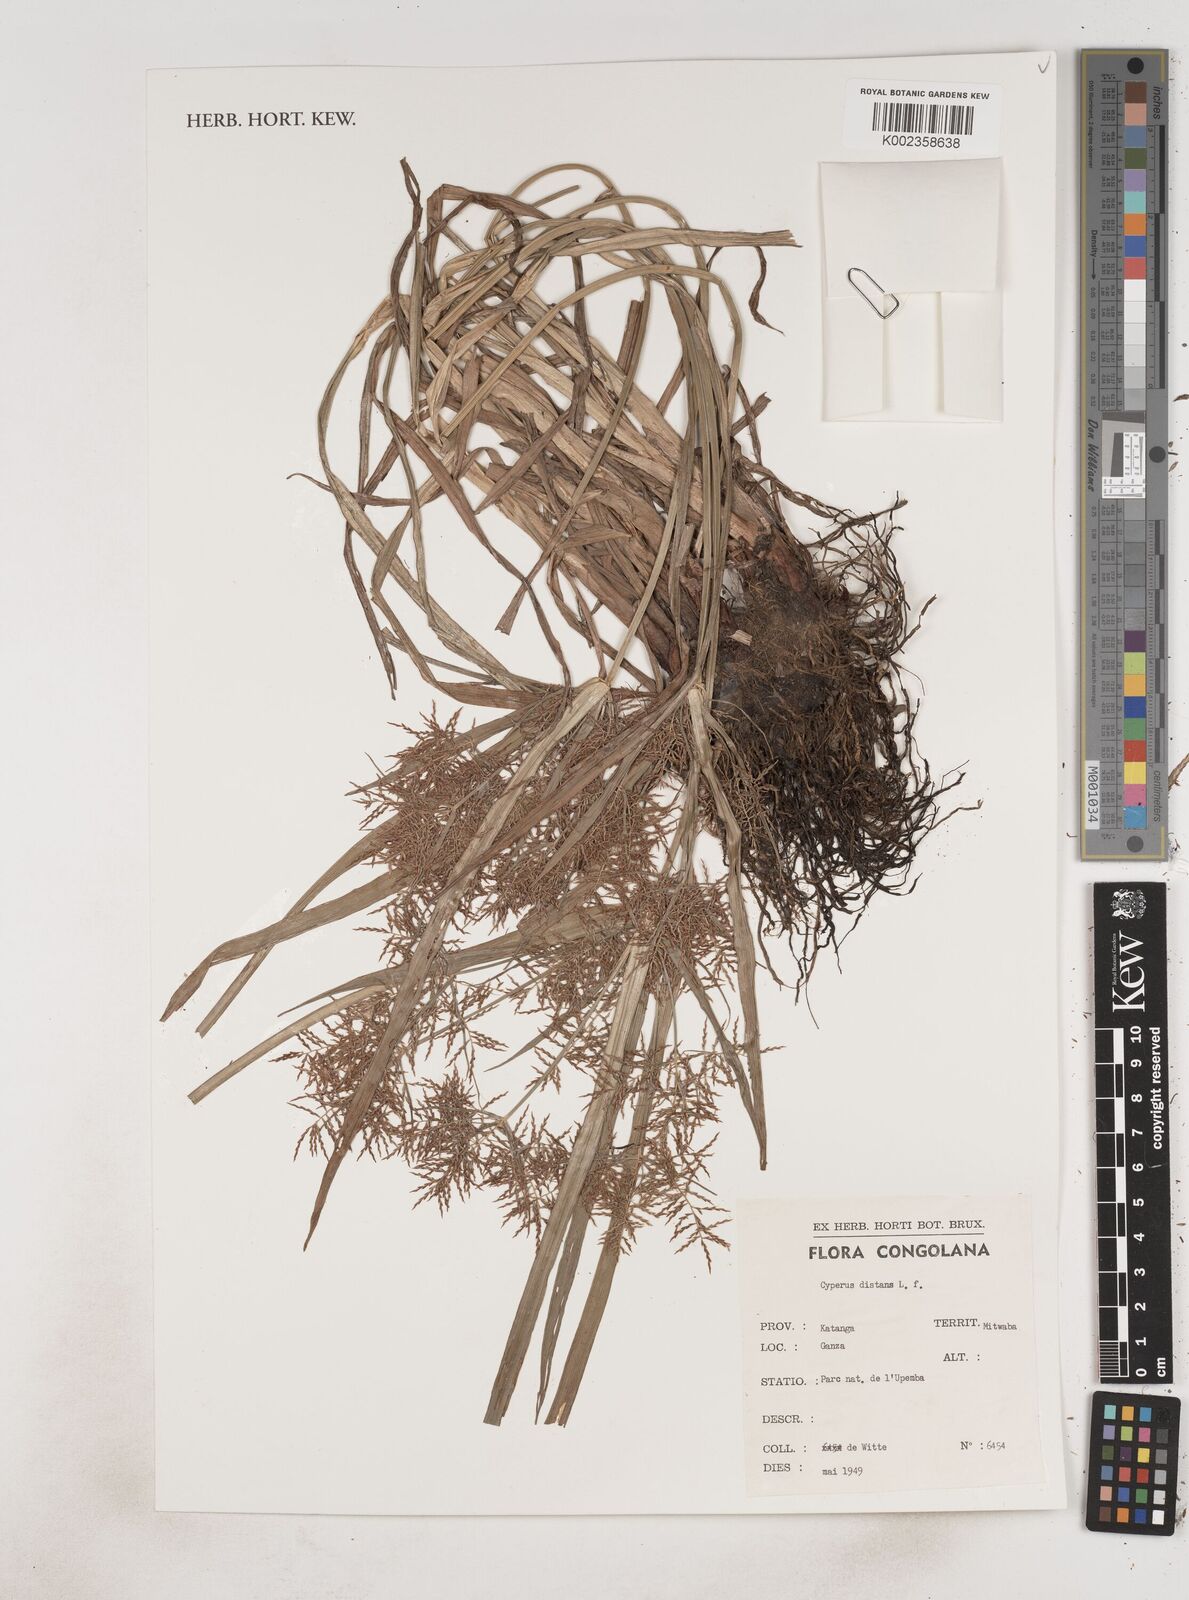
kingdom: Plantae
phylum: Tracheophyta
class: Liliopsida
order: Poales
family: Cyperaceae
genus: Cyperus
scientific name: Cyperus distans
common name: Slender cyperus
